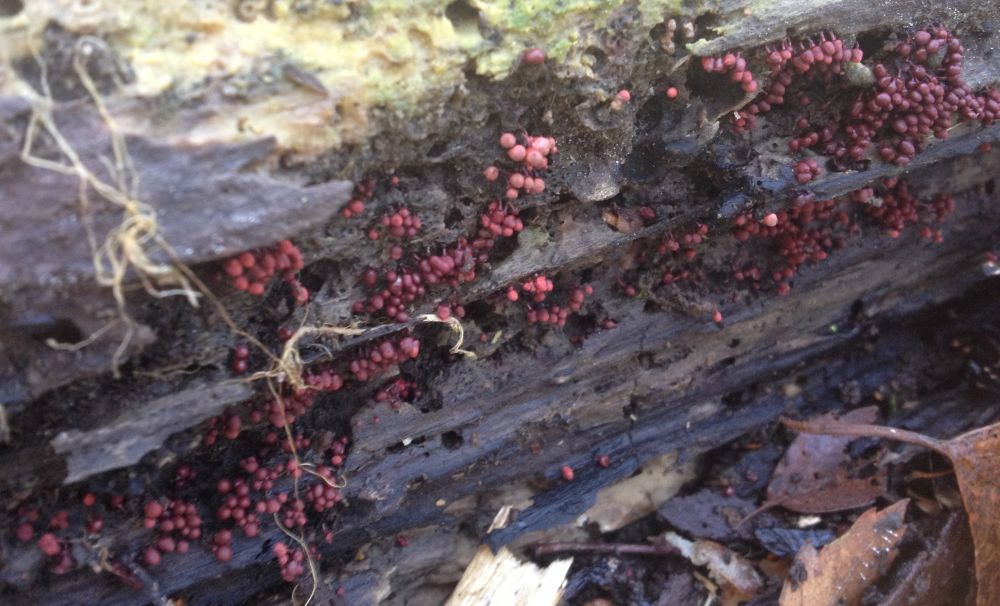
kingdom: Protozoa
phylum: Amoebozoa
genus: Arcyria
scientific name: Arcyria
